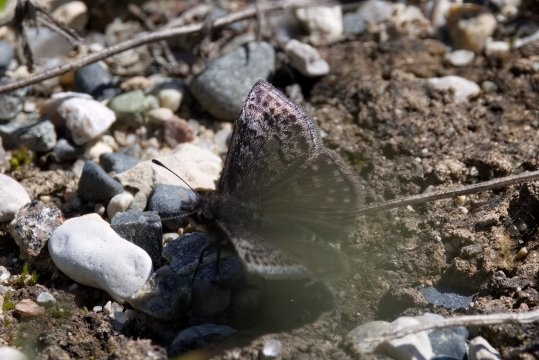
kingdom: Animalia
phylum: Arthropoda
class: Insecta
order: Lepidoptera
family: Hesperiidae
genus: Erynnis
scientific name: Erynnis icelus
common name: Dreamy Duskywing
